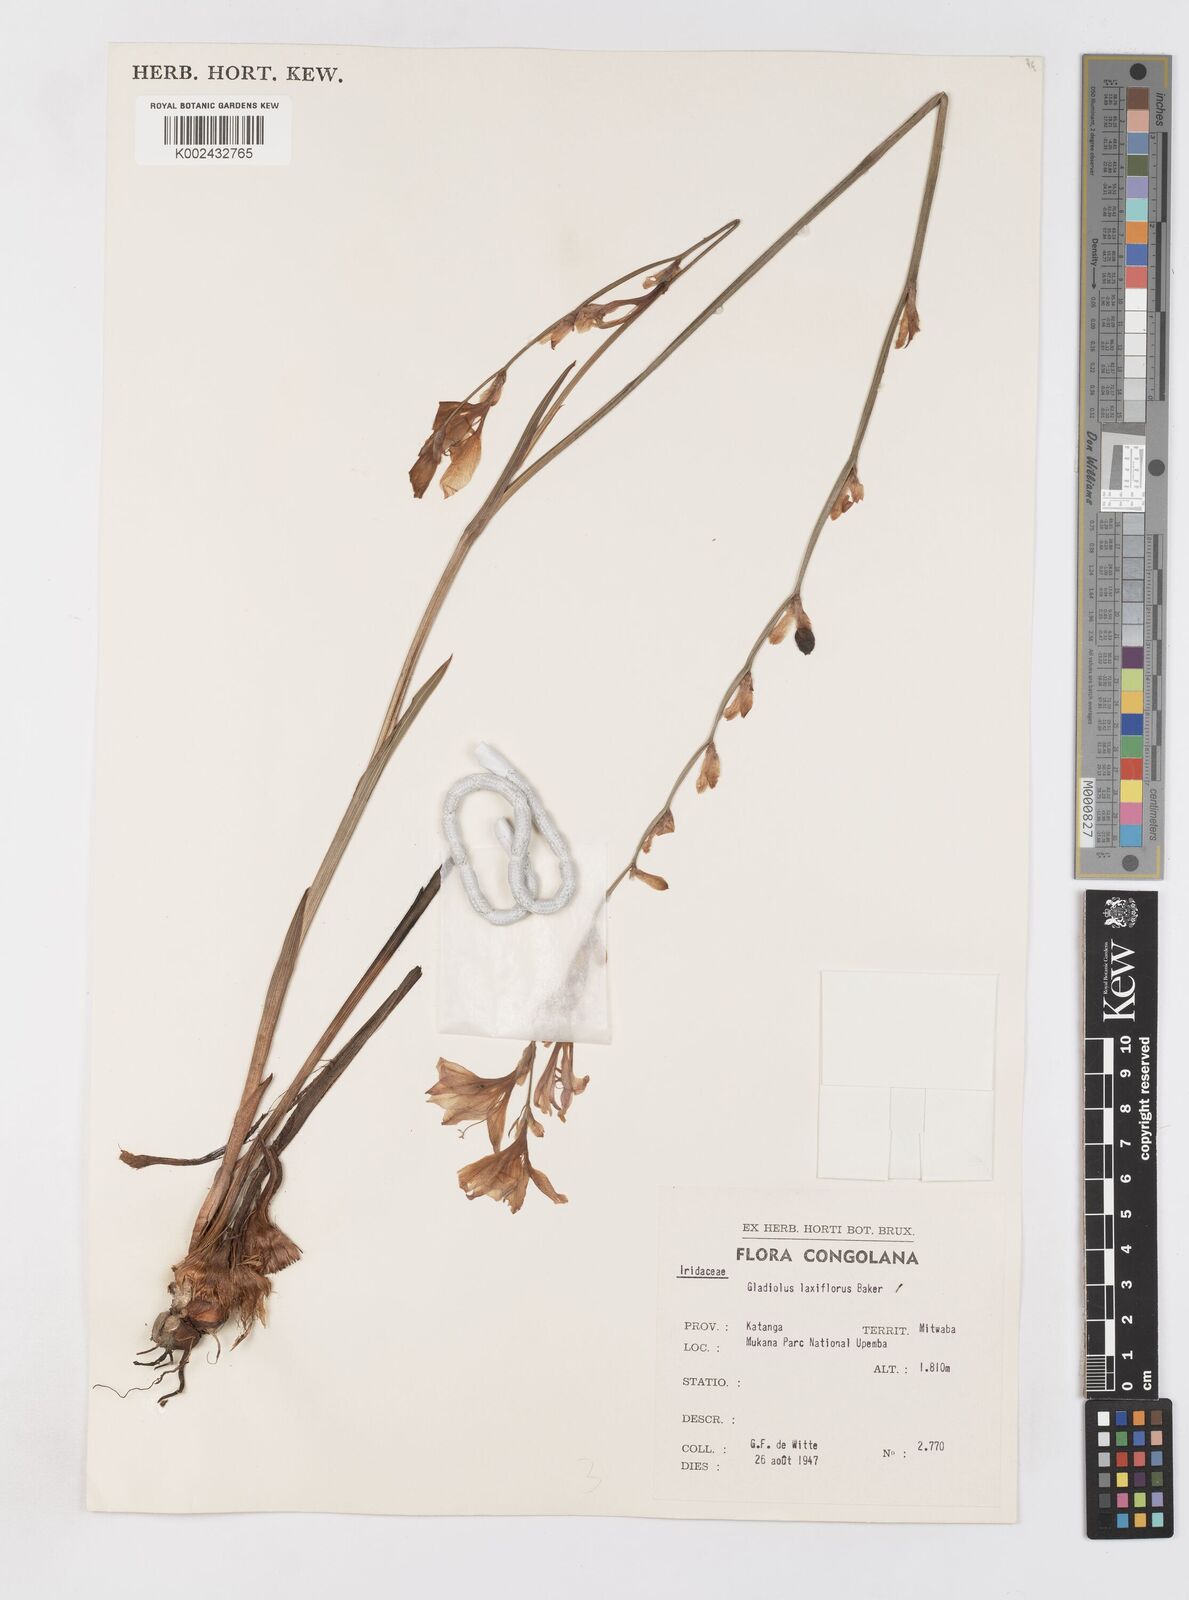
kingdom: Plantae
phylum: Tracheophyta
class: Liliopsida
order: Asparagales
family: Iridaceae
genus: Gladiolus
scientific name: Gladiolus laxiflorus
